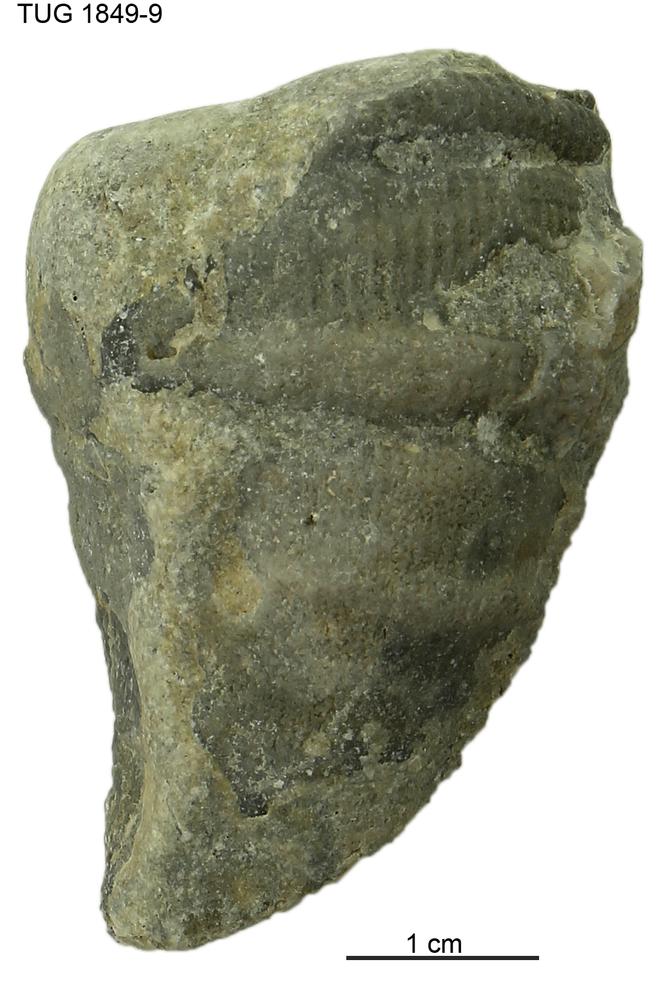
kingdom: Animalia
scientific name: Animalia
